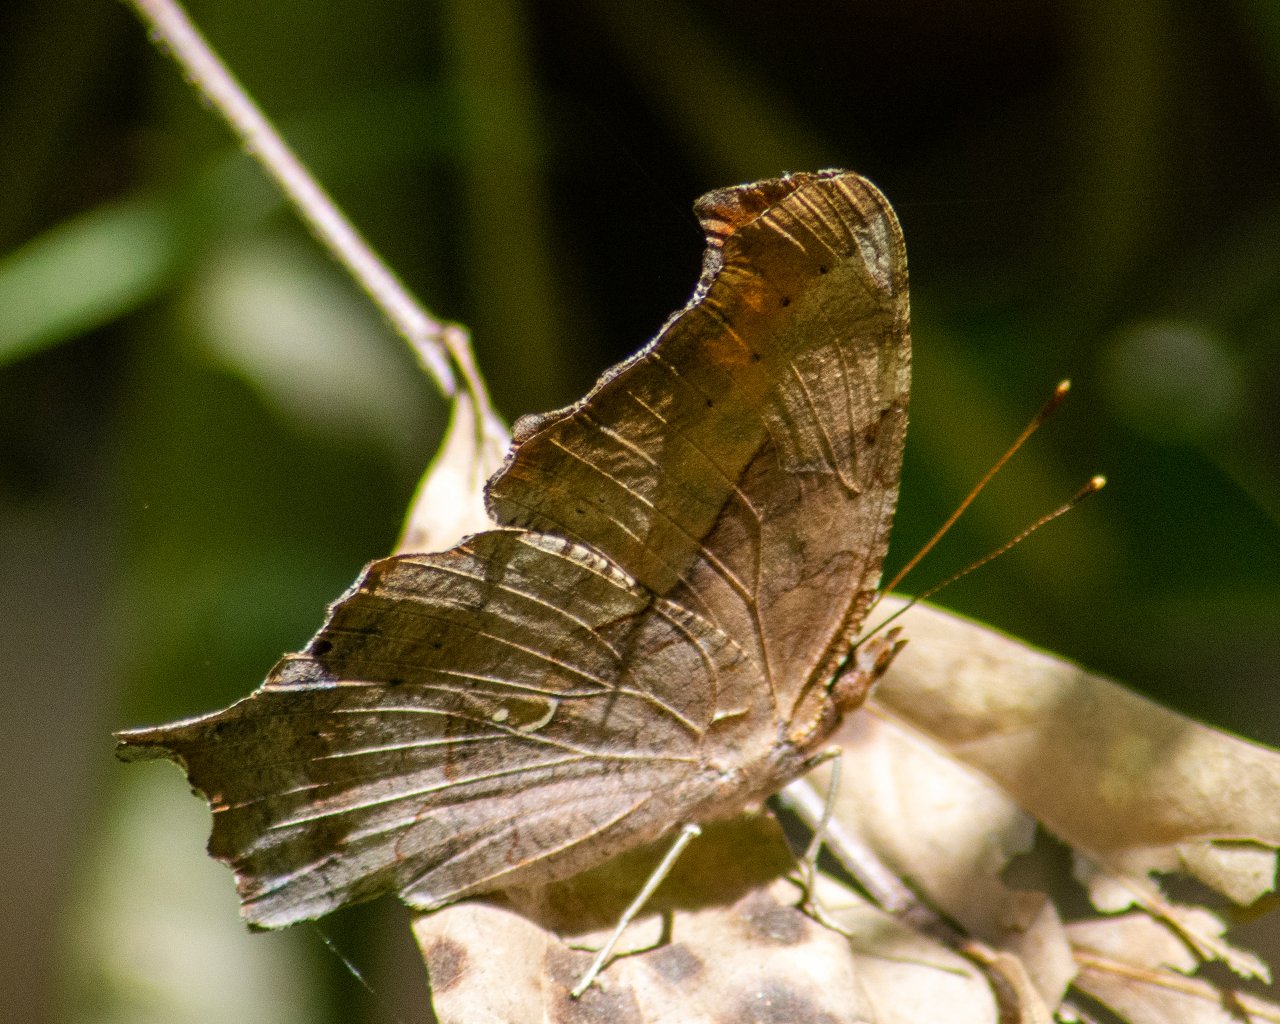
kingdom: Animalia
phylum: Arthropoda
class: Insecta
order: Lepidoptera
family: Nymphalidae
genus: Polygonia
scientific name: Polygonia interrogationis
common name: Question Mark
